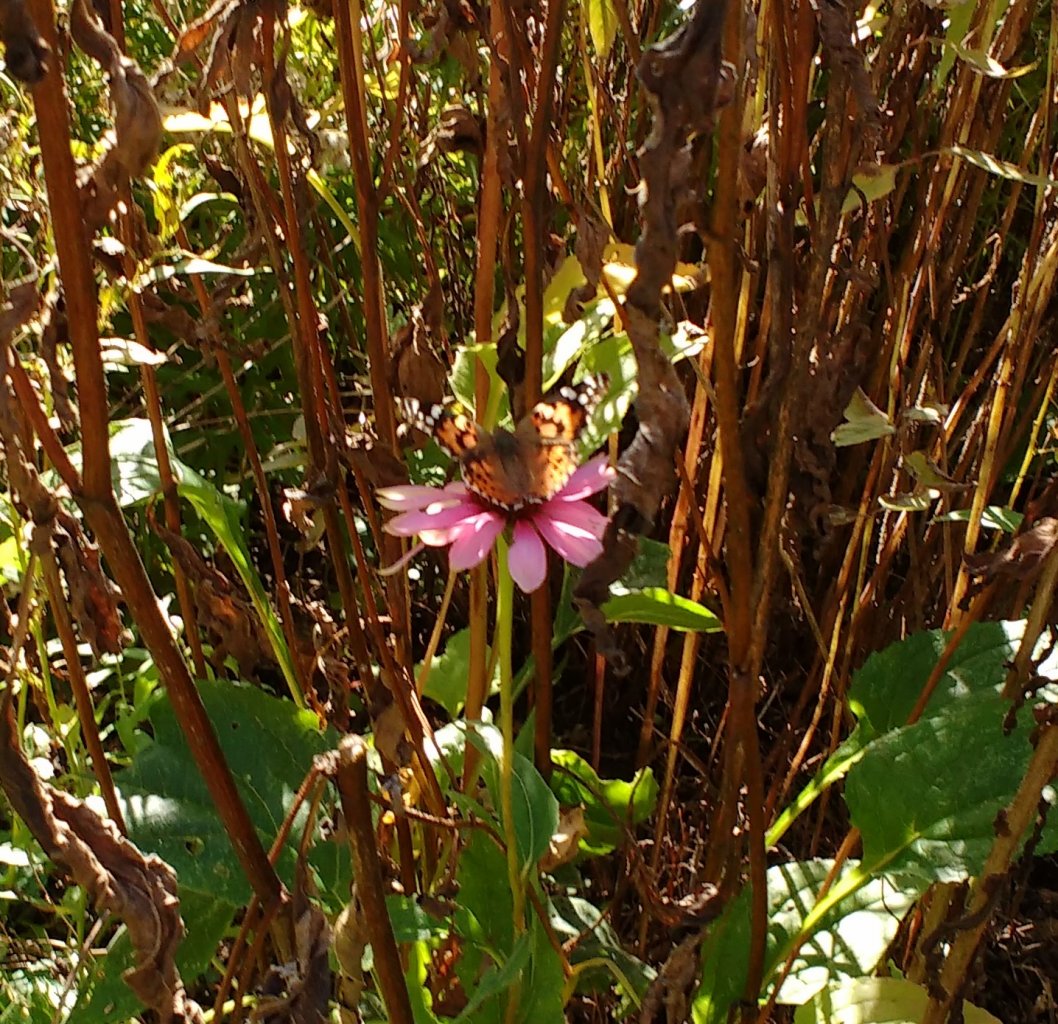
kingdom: Animalia
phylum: Arthropoda
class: Insecta
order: Lepidoptera
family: Nymphalidae
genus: Vanessa
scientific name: Vanessa cardui
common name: Painted Lady
